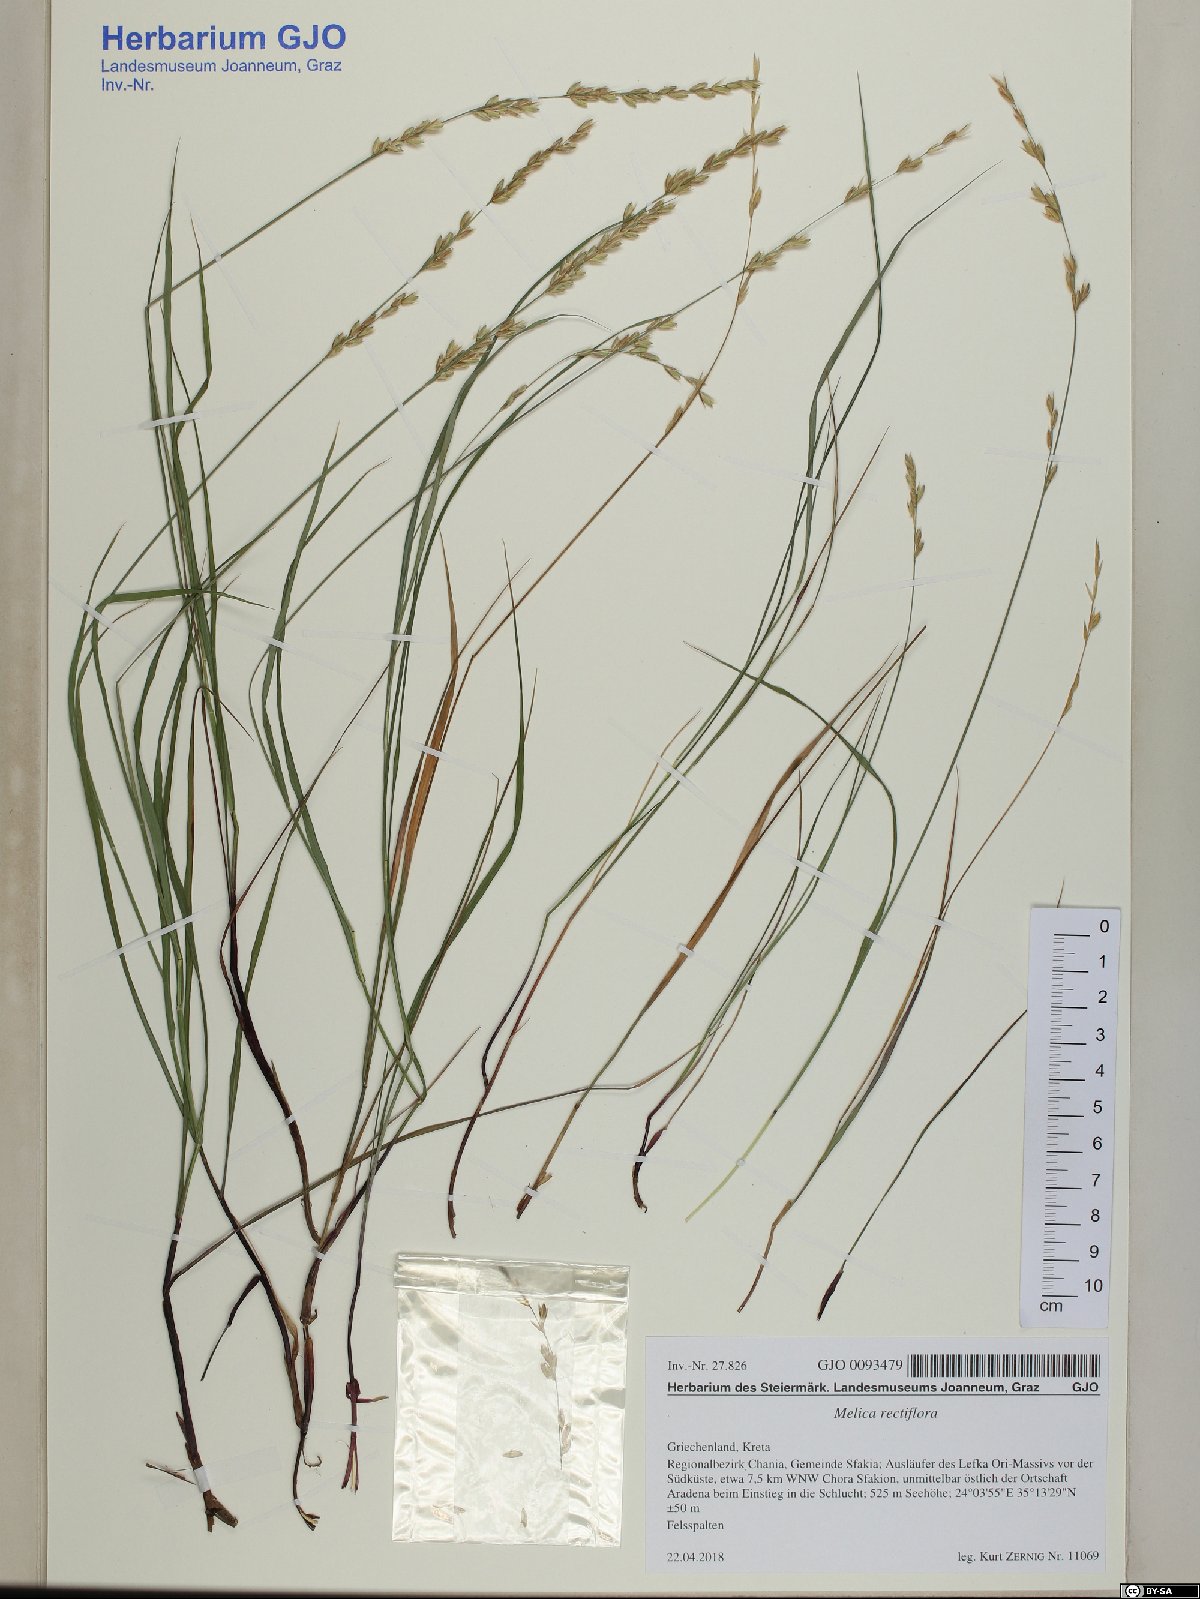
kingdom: Plantae
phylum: Tracheophyta
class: Liliopsida
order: Poales
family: Poaceae
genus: Melica
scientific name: Melica rectiflora
